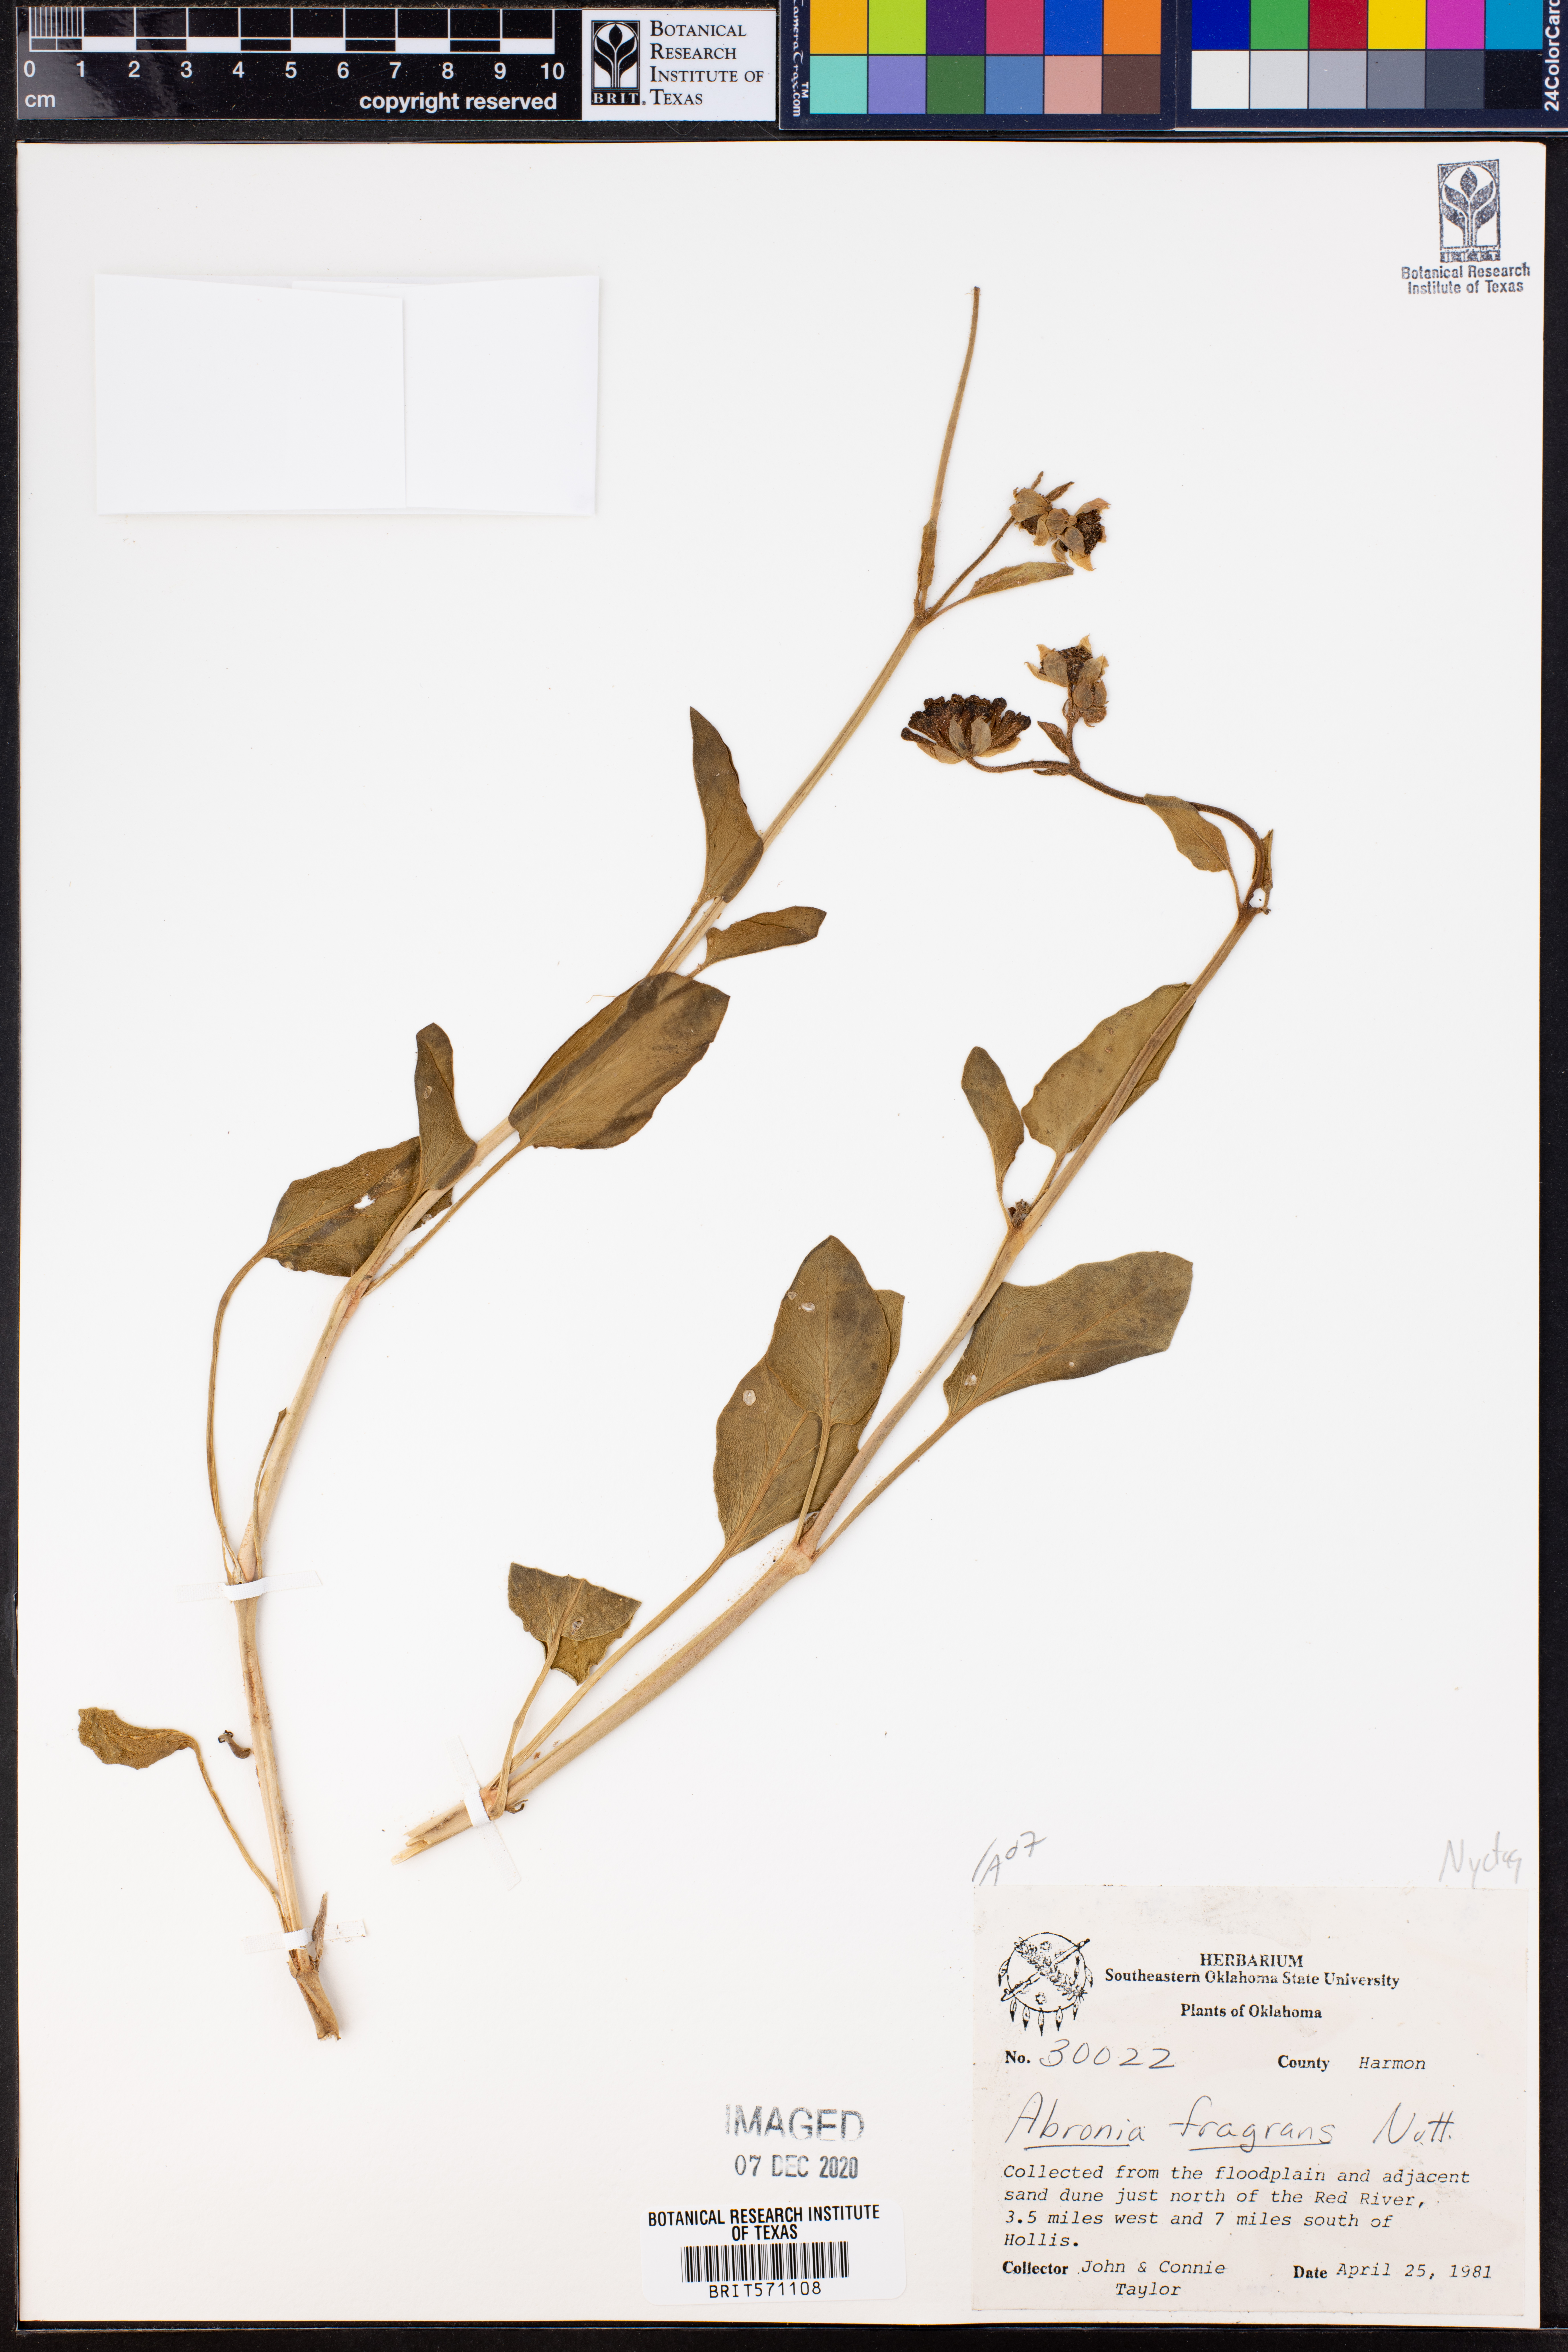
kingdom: Plantae
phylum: Tracheophyta
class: Magnoliopsida
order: Caryophyllales
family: Nyctaginaceae
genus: Abronia
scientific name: Abronia fragrans
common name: Fragrant sand-verbena
